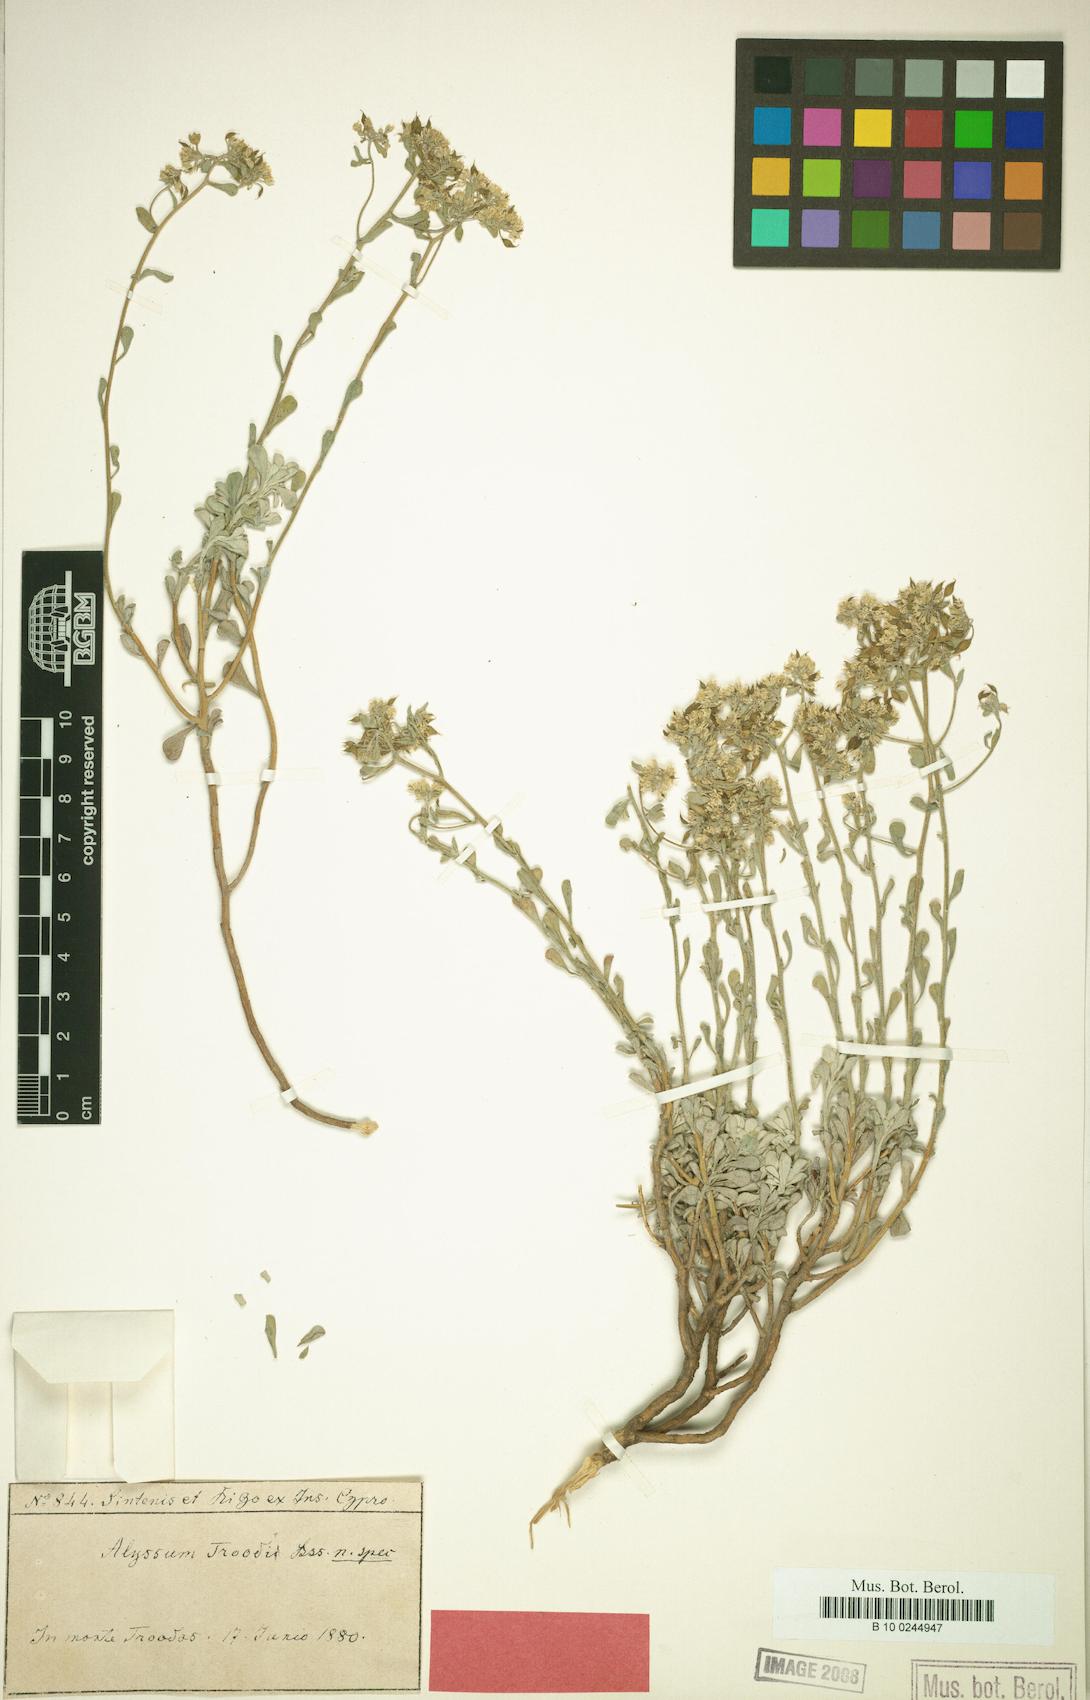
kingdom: Plantae
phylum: Tracheophyta
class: Magnoliopsida
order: Brassicales
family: Brassicaceae
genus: Odontarrhena
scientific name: Odontarrhena troodi
